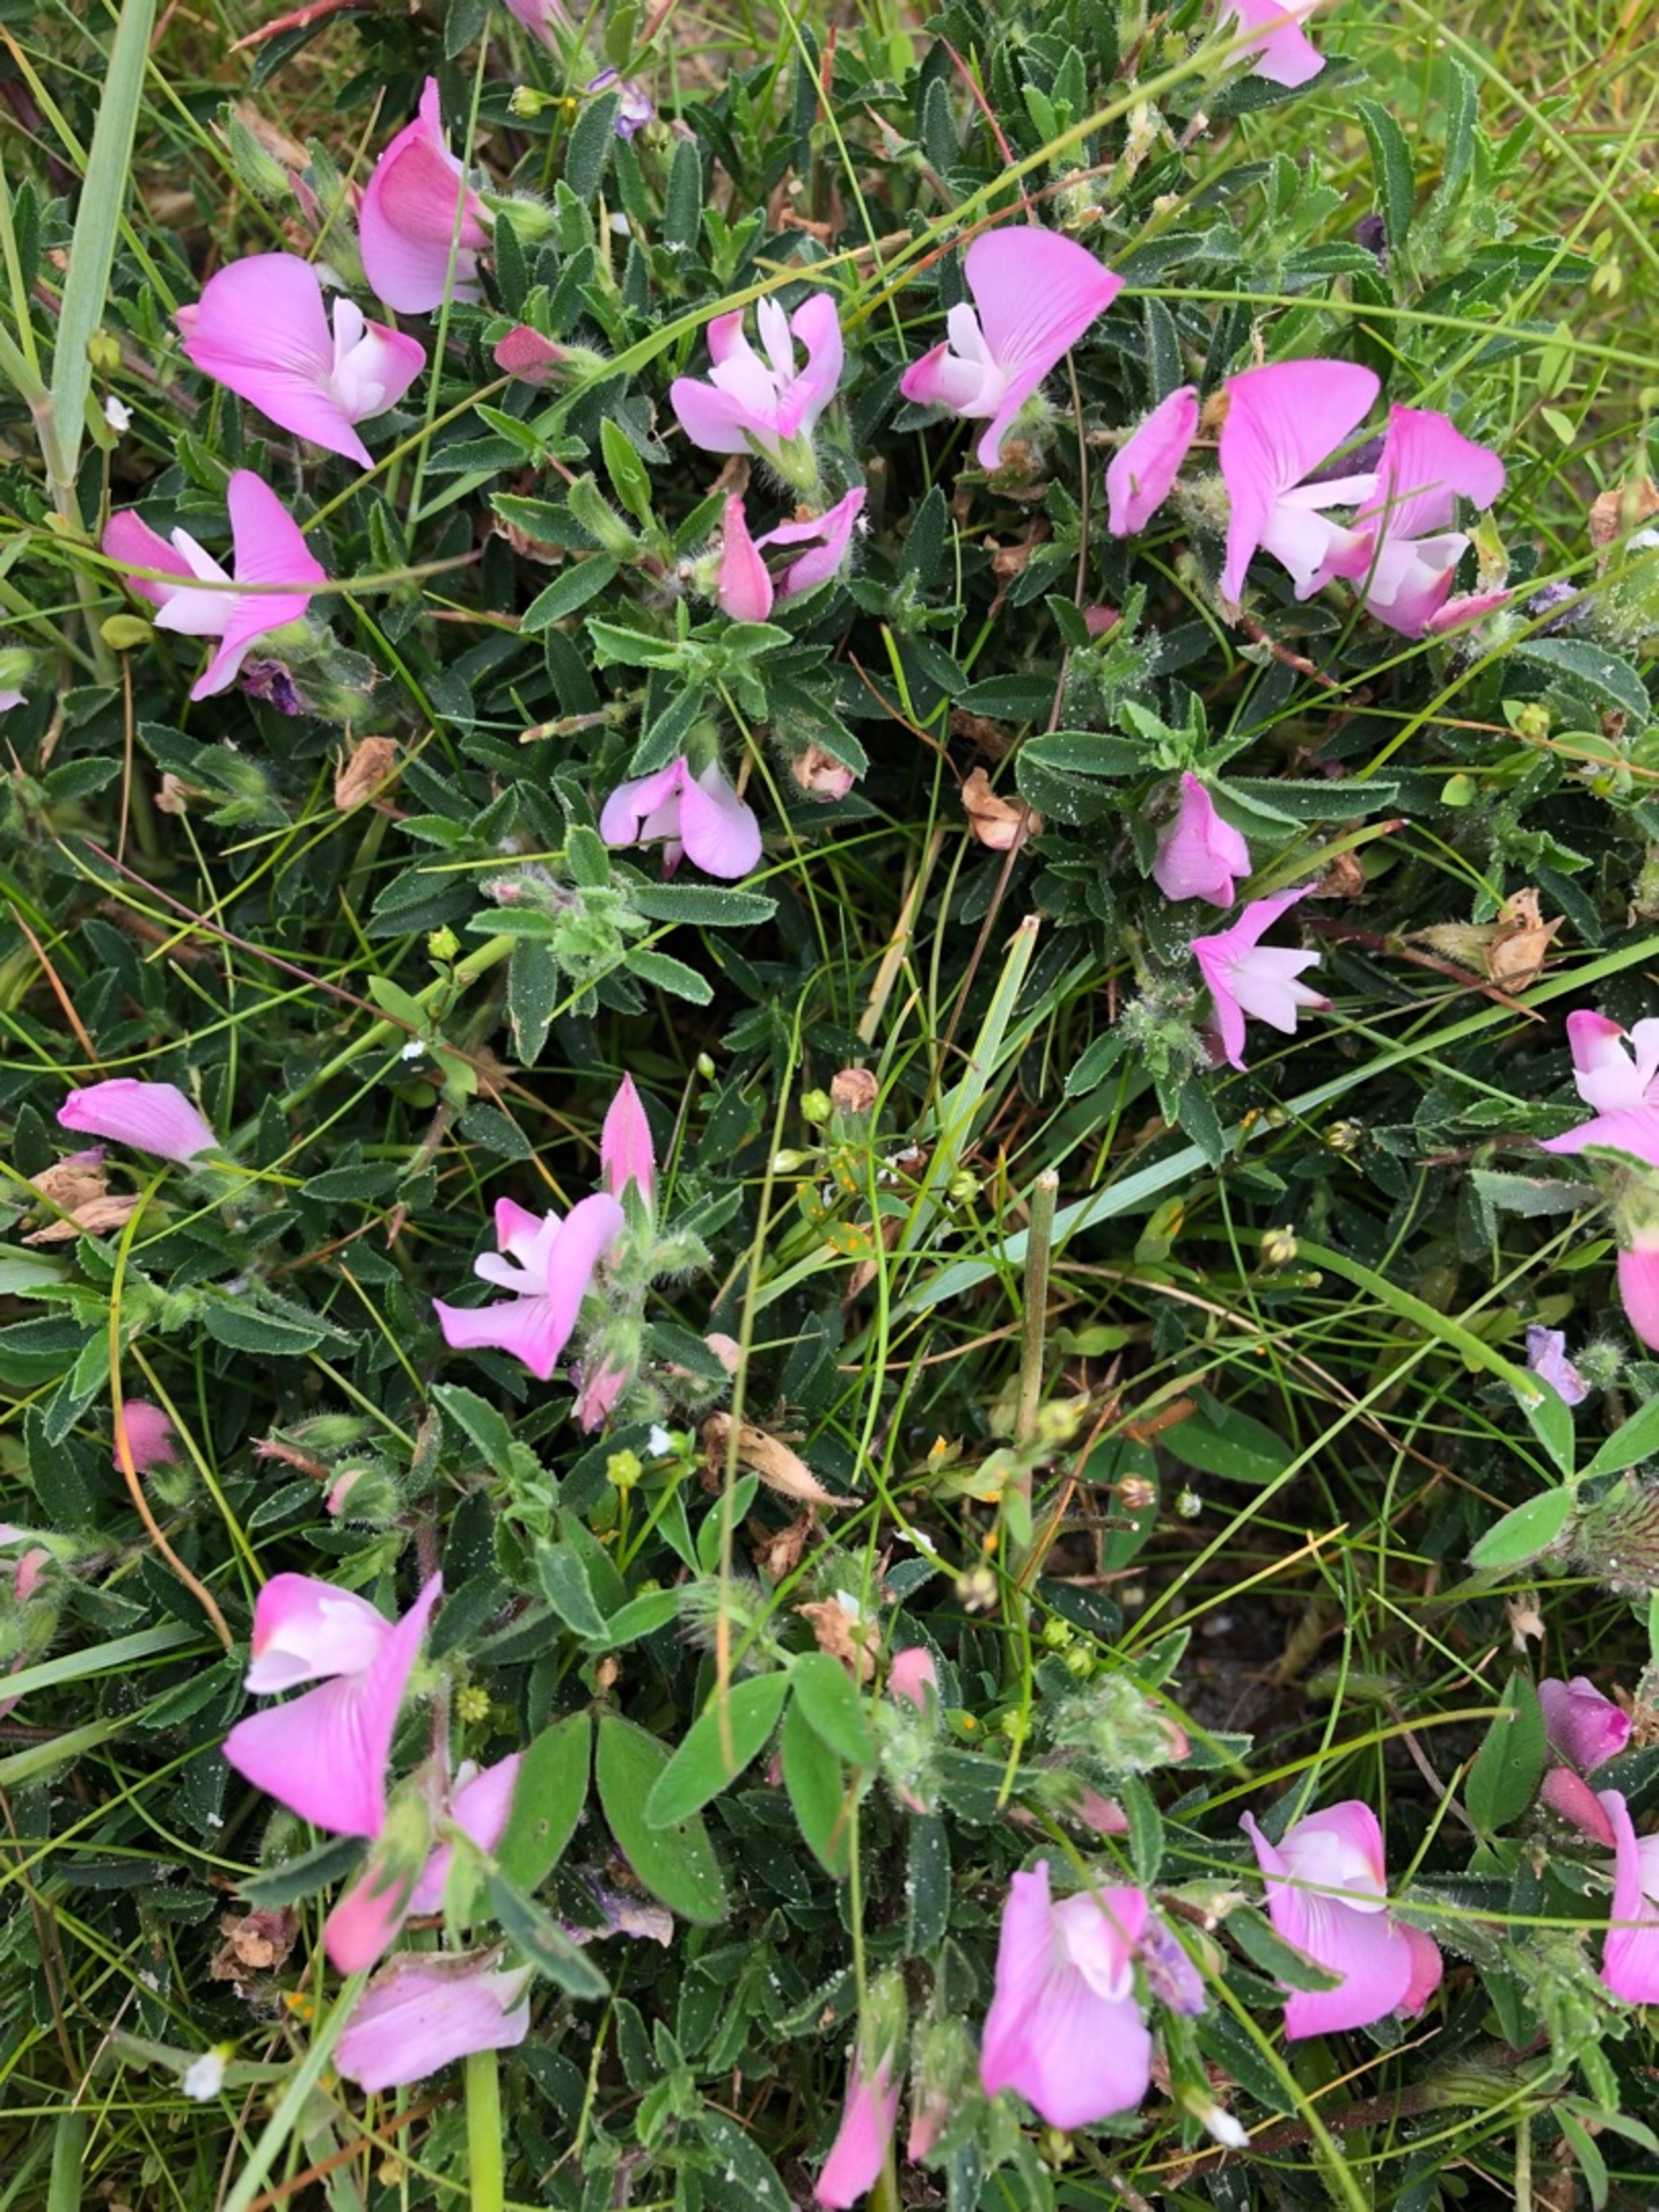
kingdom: Plantae
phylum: Tracheophyta
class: Magnoliopsida
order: Fabales
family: Fabaceae
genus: Ononis
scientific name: Ononis spinosa
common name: Strand-krageklo
